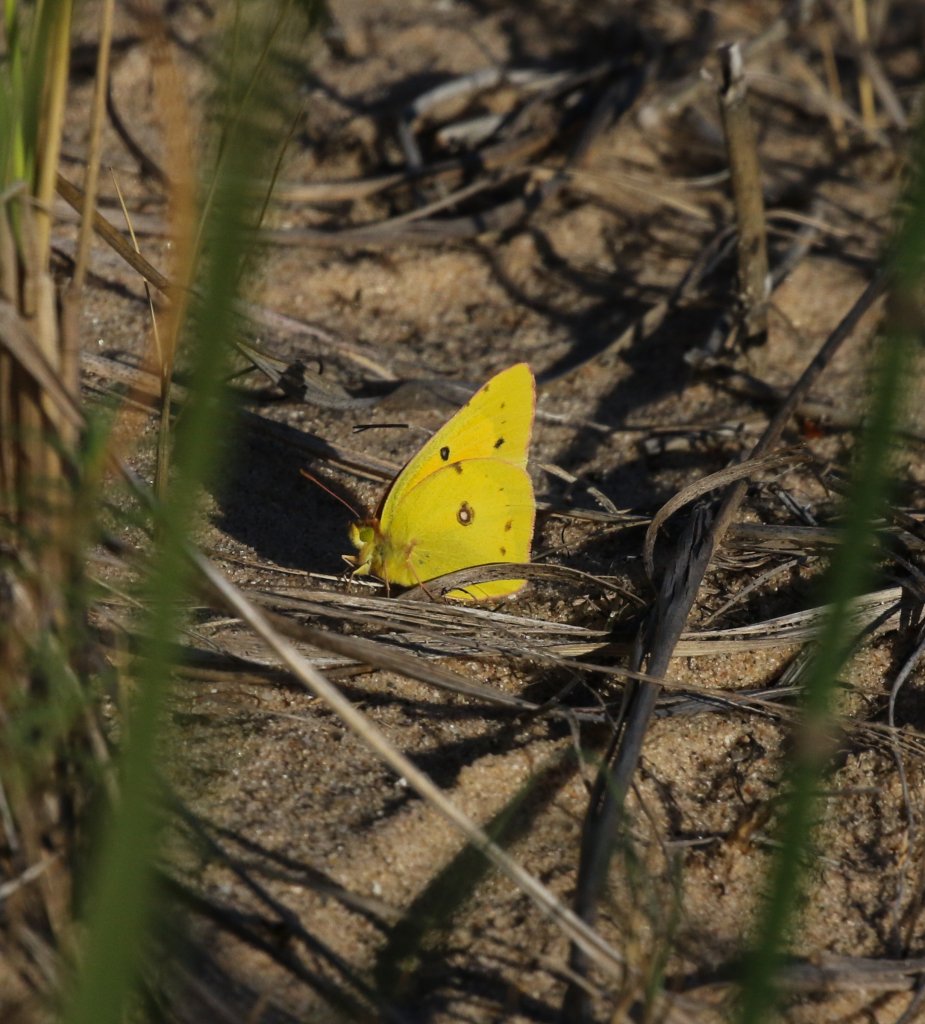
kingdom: Animalia
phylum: Arthropoda
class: Insecta
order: Lepidoptera
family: Pieridae
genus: Colias
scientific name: Colias eurytheme
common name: Orange Sulphur
